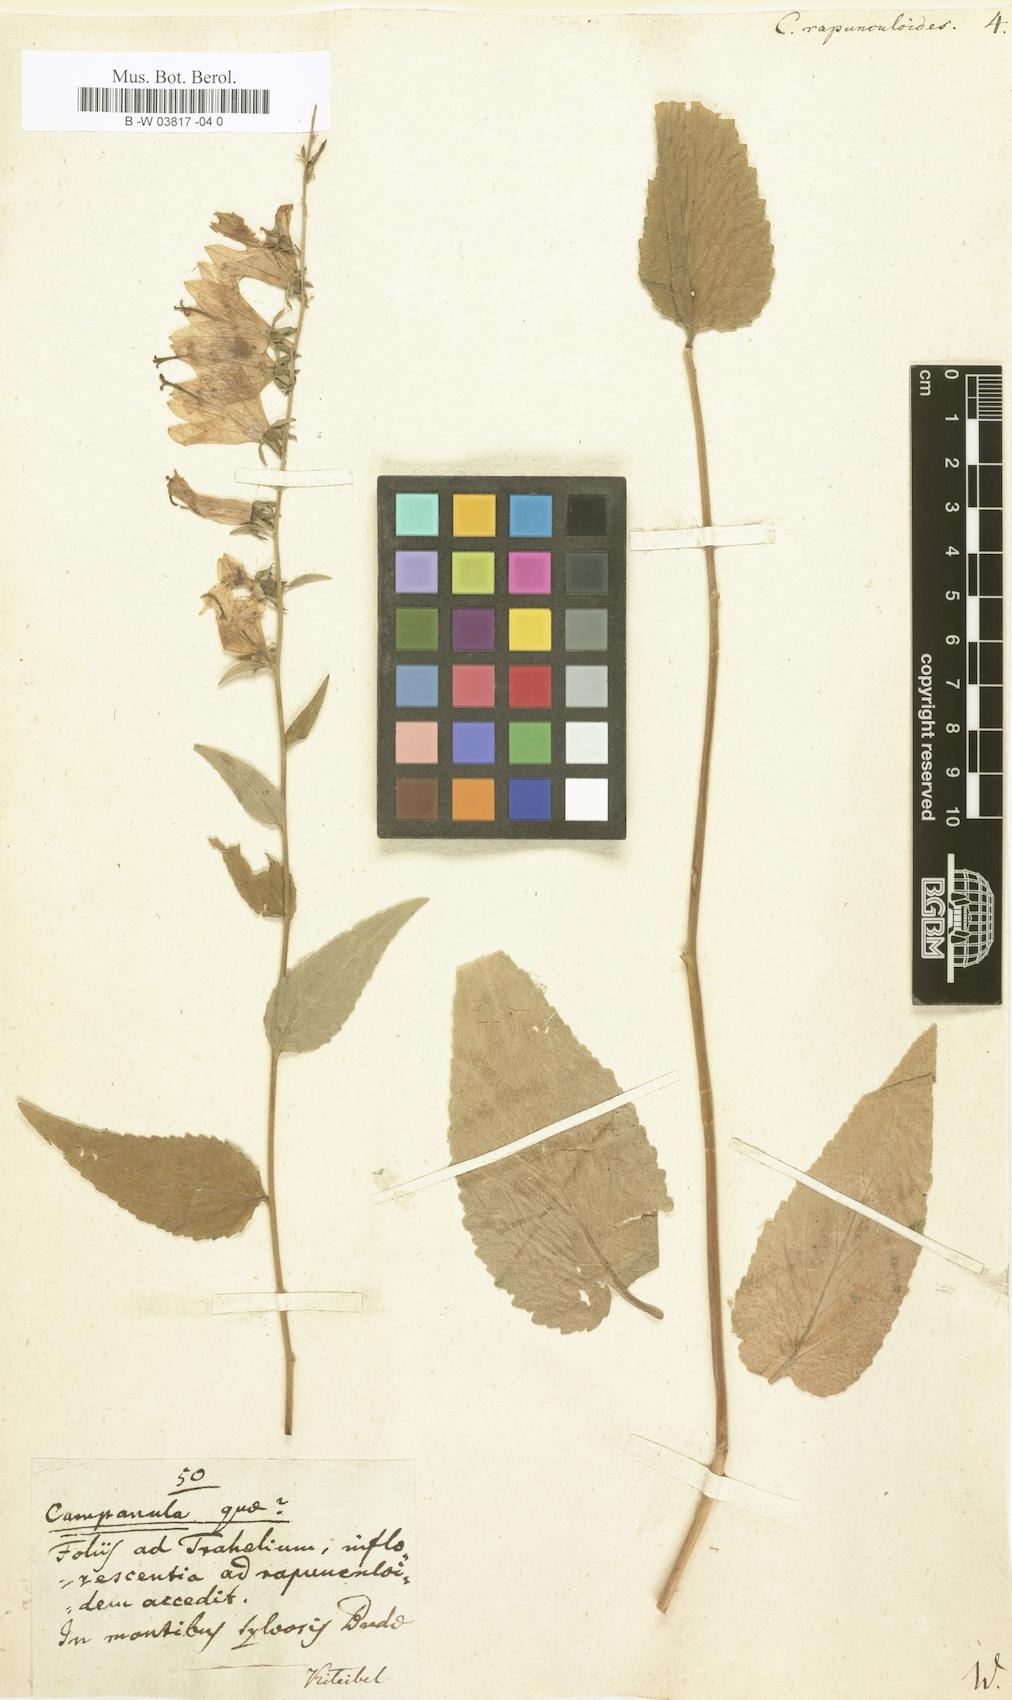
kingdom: Plantae
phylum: Tracheophyta
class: Magnoliopsida
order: Asterales
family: Campanulaceae
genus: Campanula
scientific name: Campanula rapunculoides
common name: Creeping bellflower
